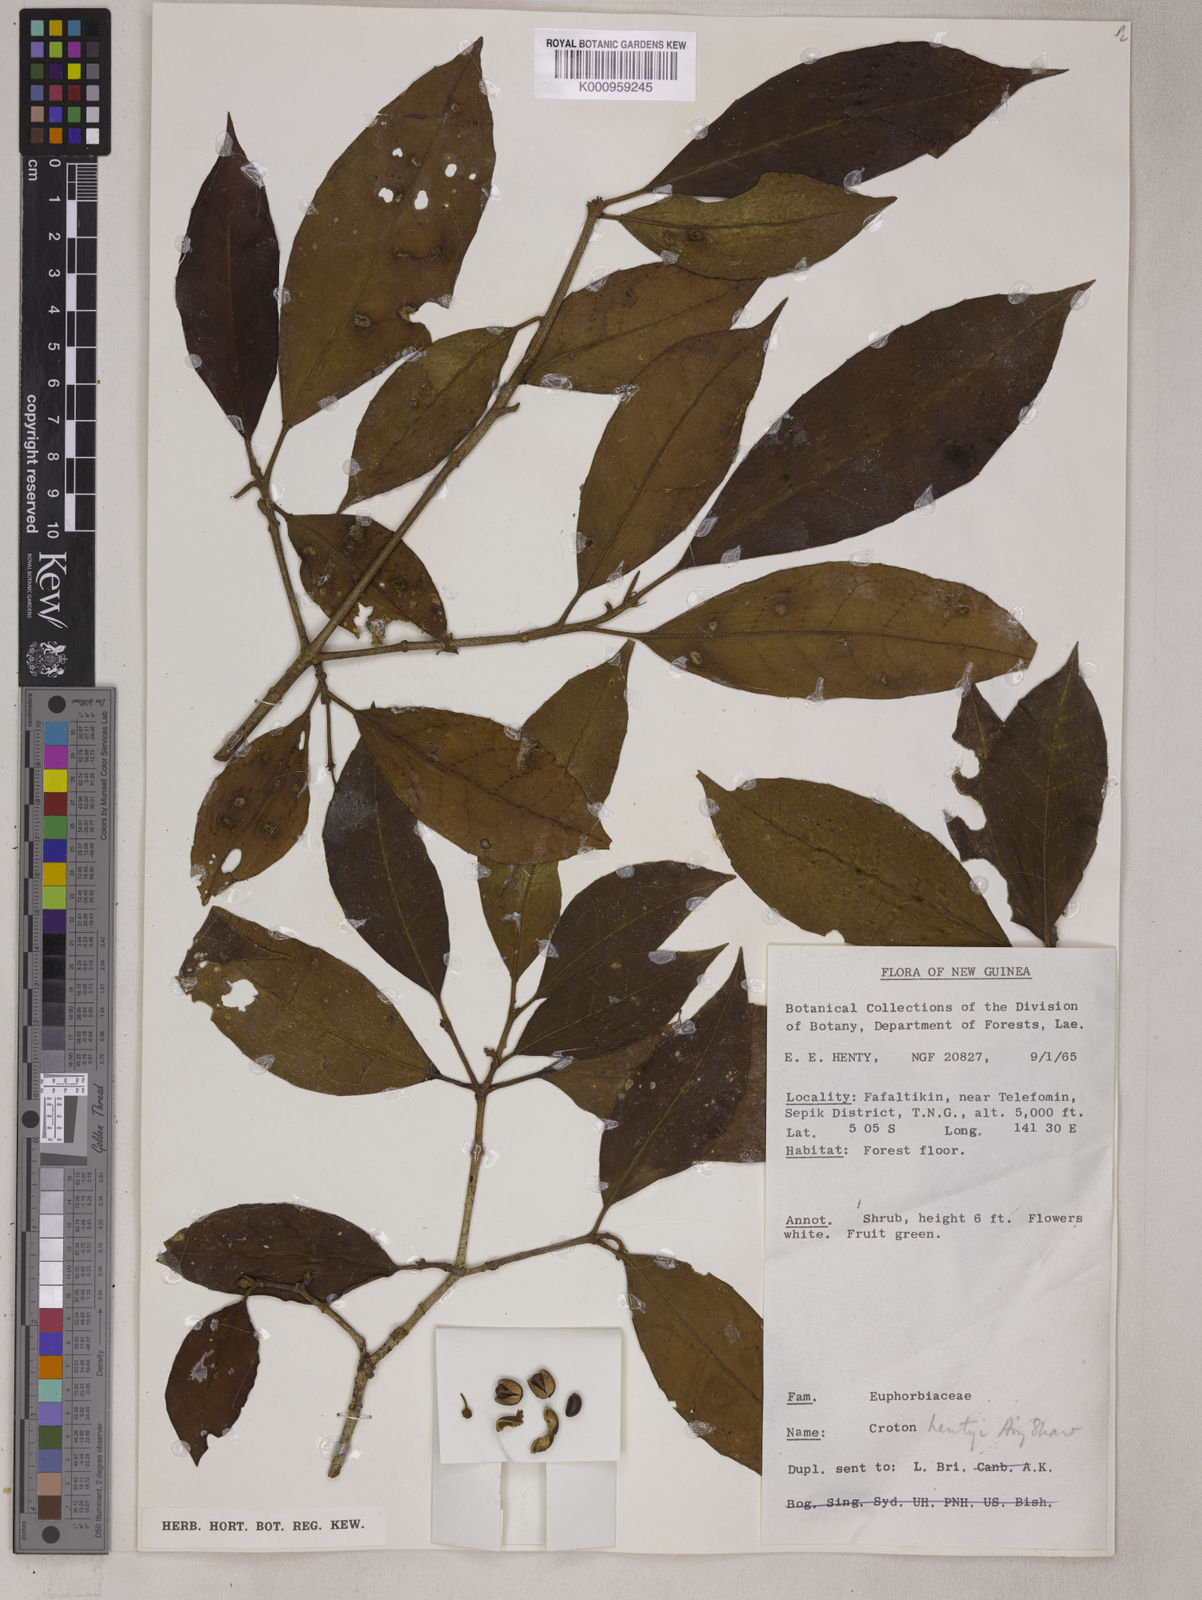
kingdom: Plantae
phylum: Tracheophyta
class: Magnoliopsida
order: Malpighiales
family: Euphorbiaceae
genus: Croton
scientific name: Croton hentyi
